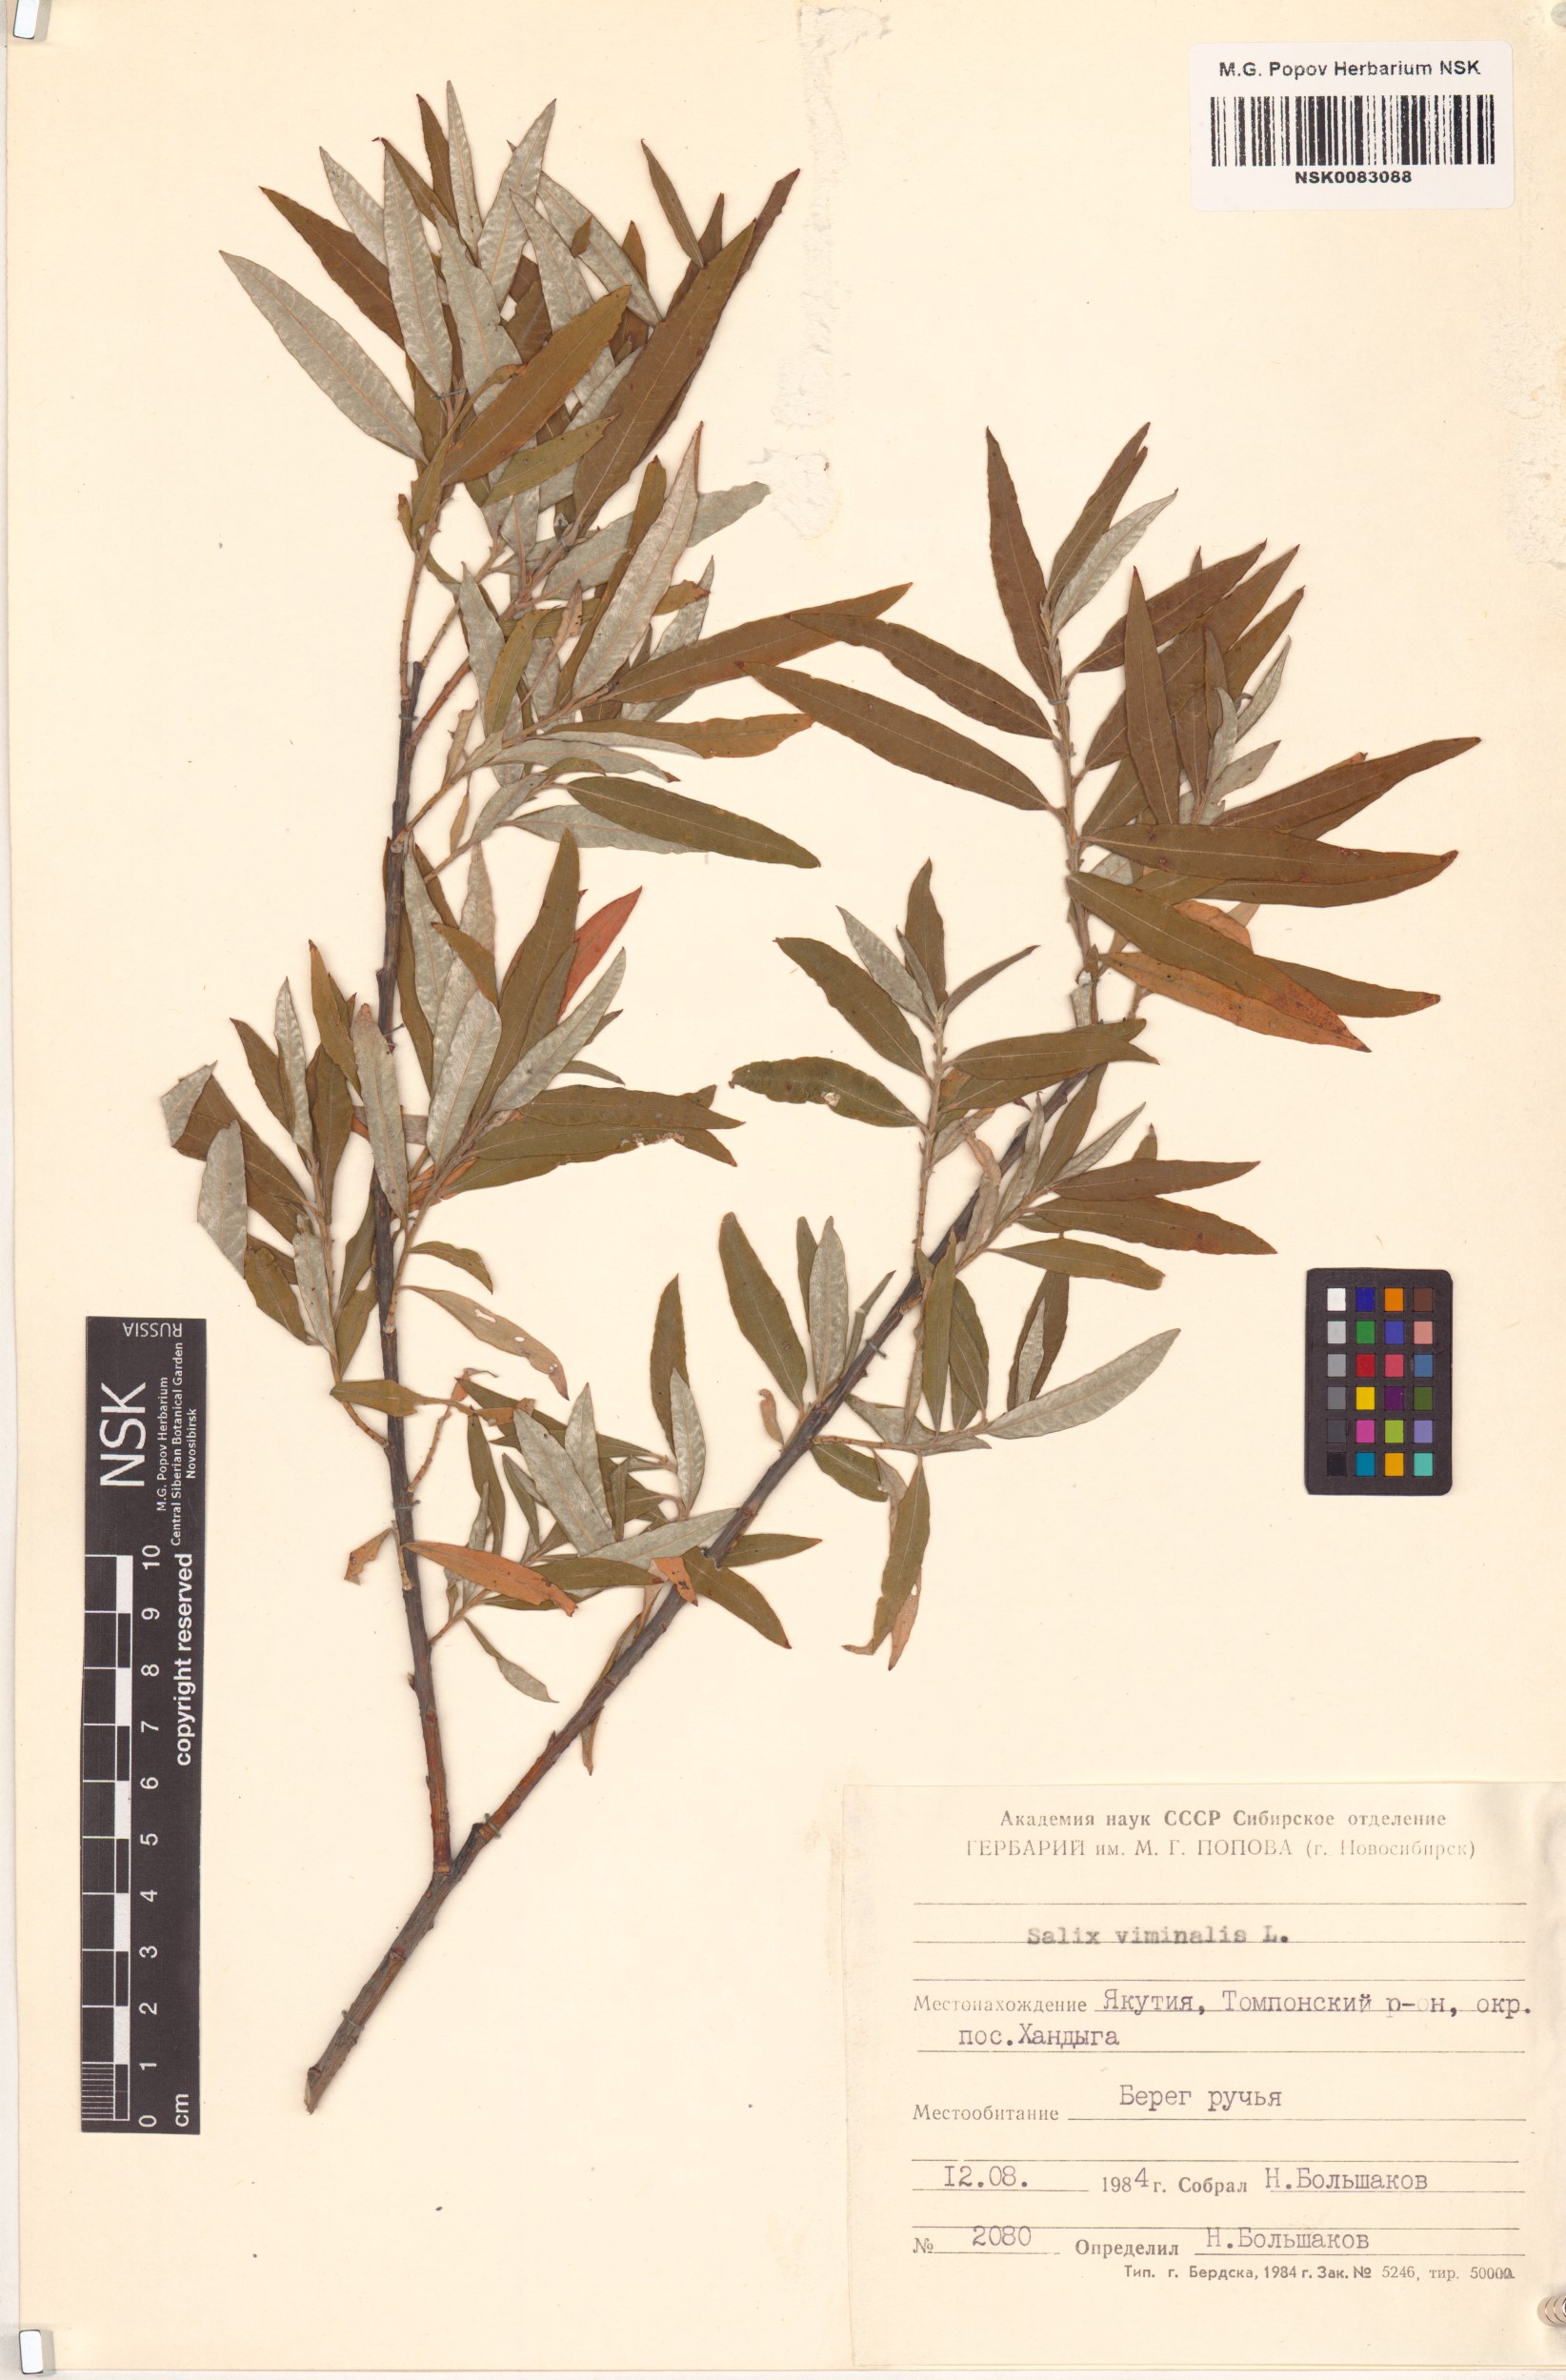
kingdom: Plantae
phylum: Tracheophyta
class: Magnoliopsida
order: Malpighiales
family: Salicaceae
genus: Salix
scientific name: Salix viminalis
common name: Osier
